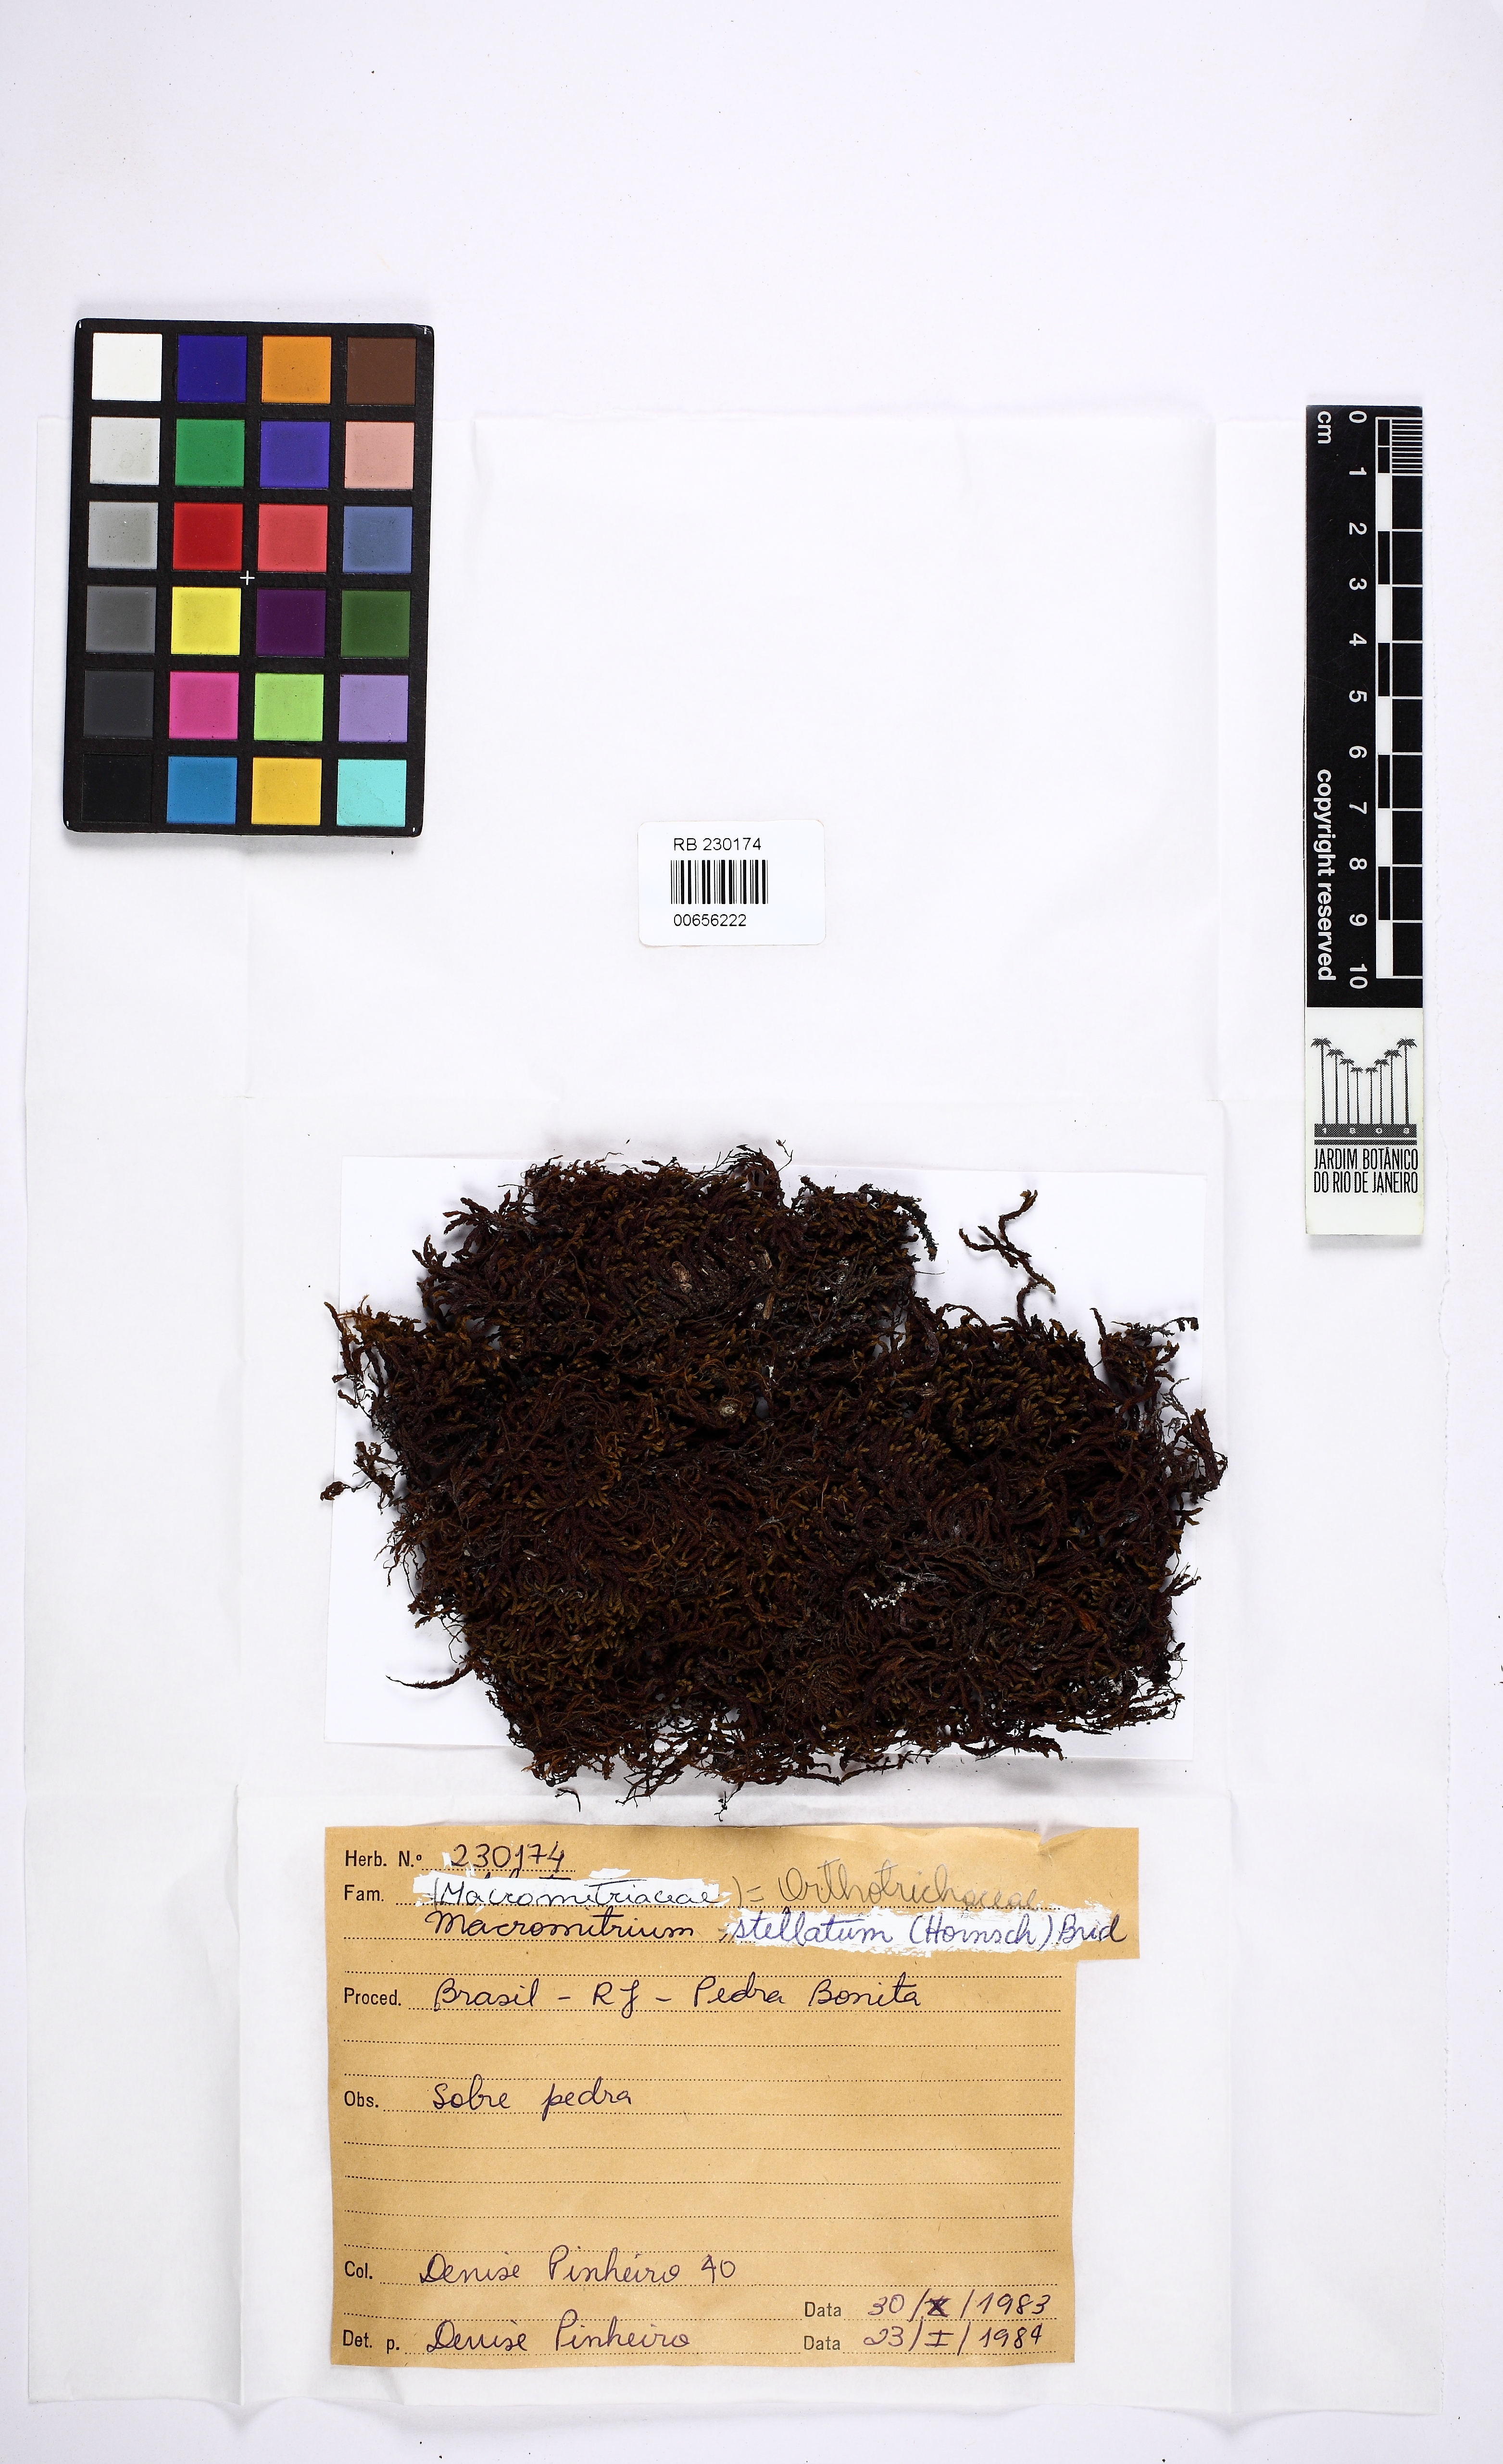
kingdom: Plantae
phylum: Bryophyta
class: Bryopsida
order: Orthotrichales
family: Orthotrichaceae
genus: Macromitrium
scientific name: Macromitrium swainsonii
